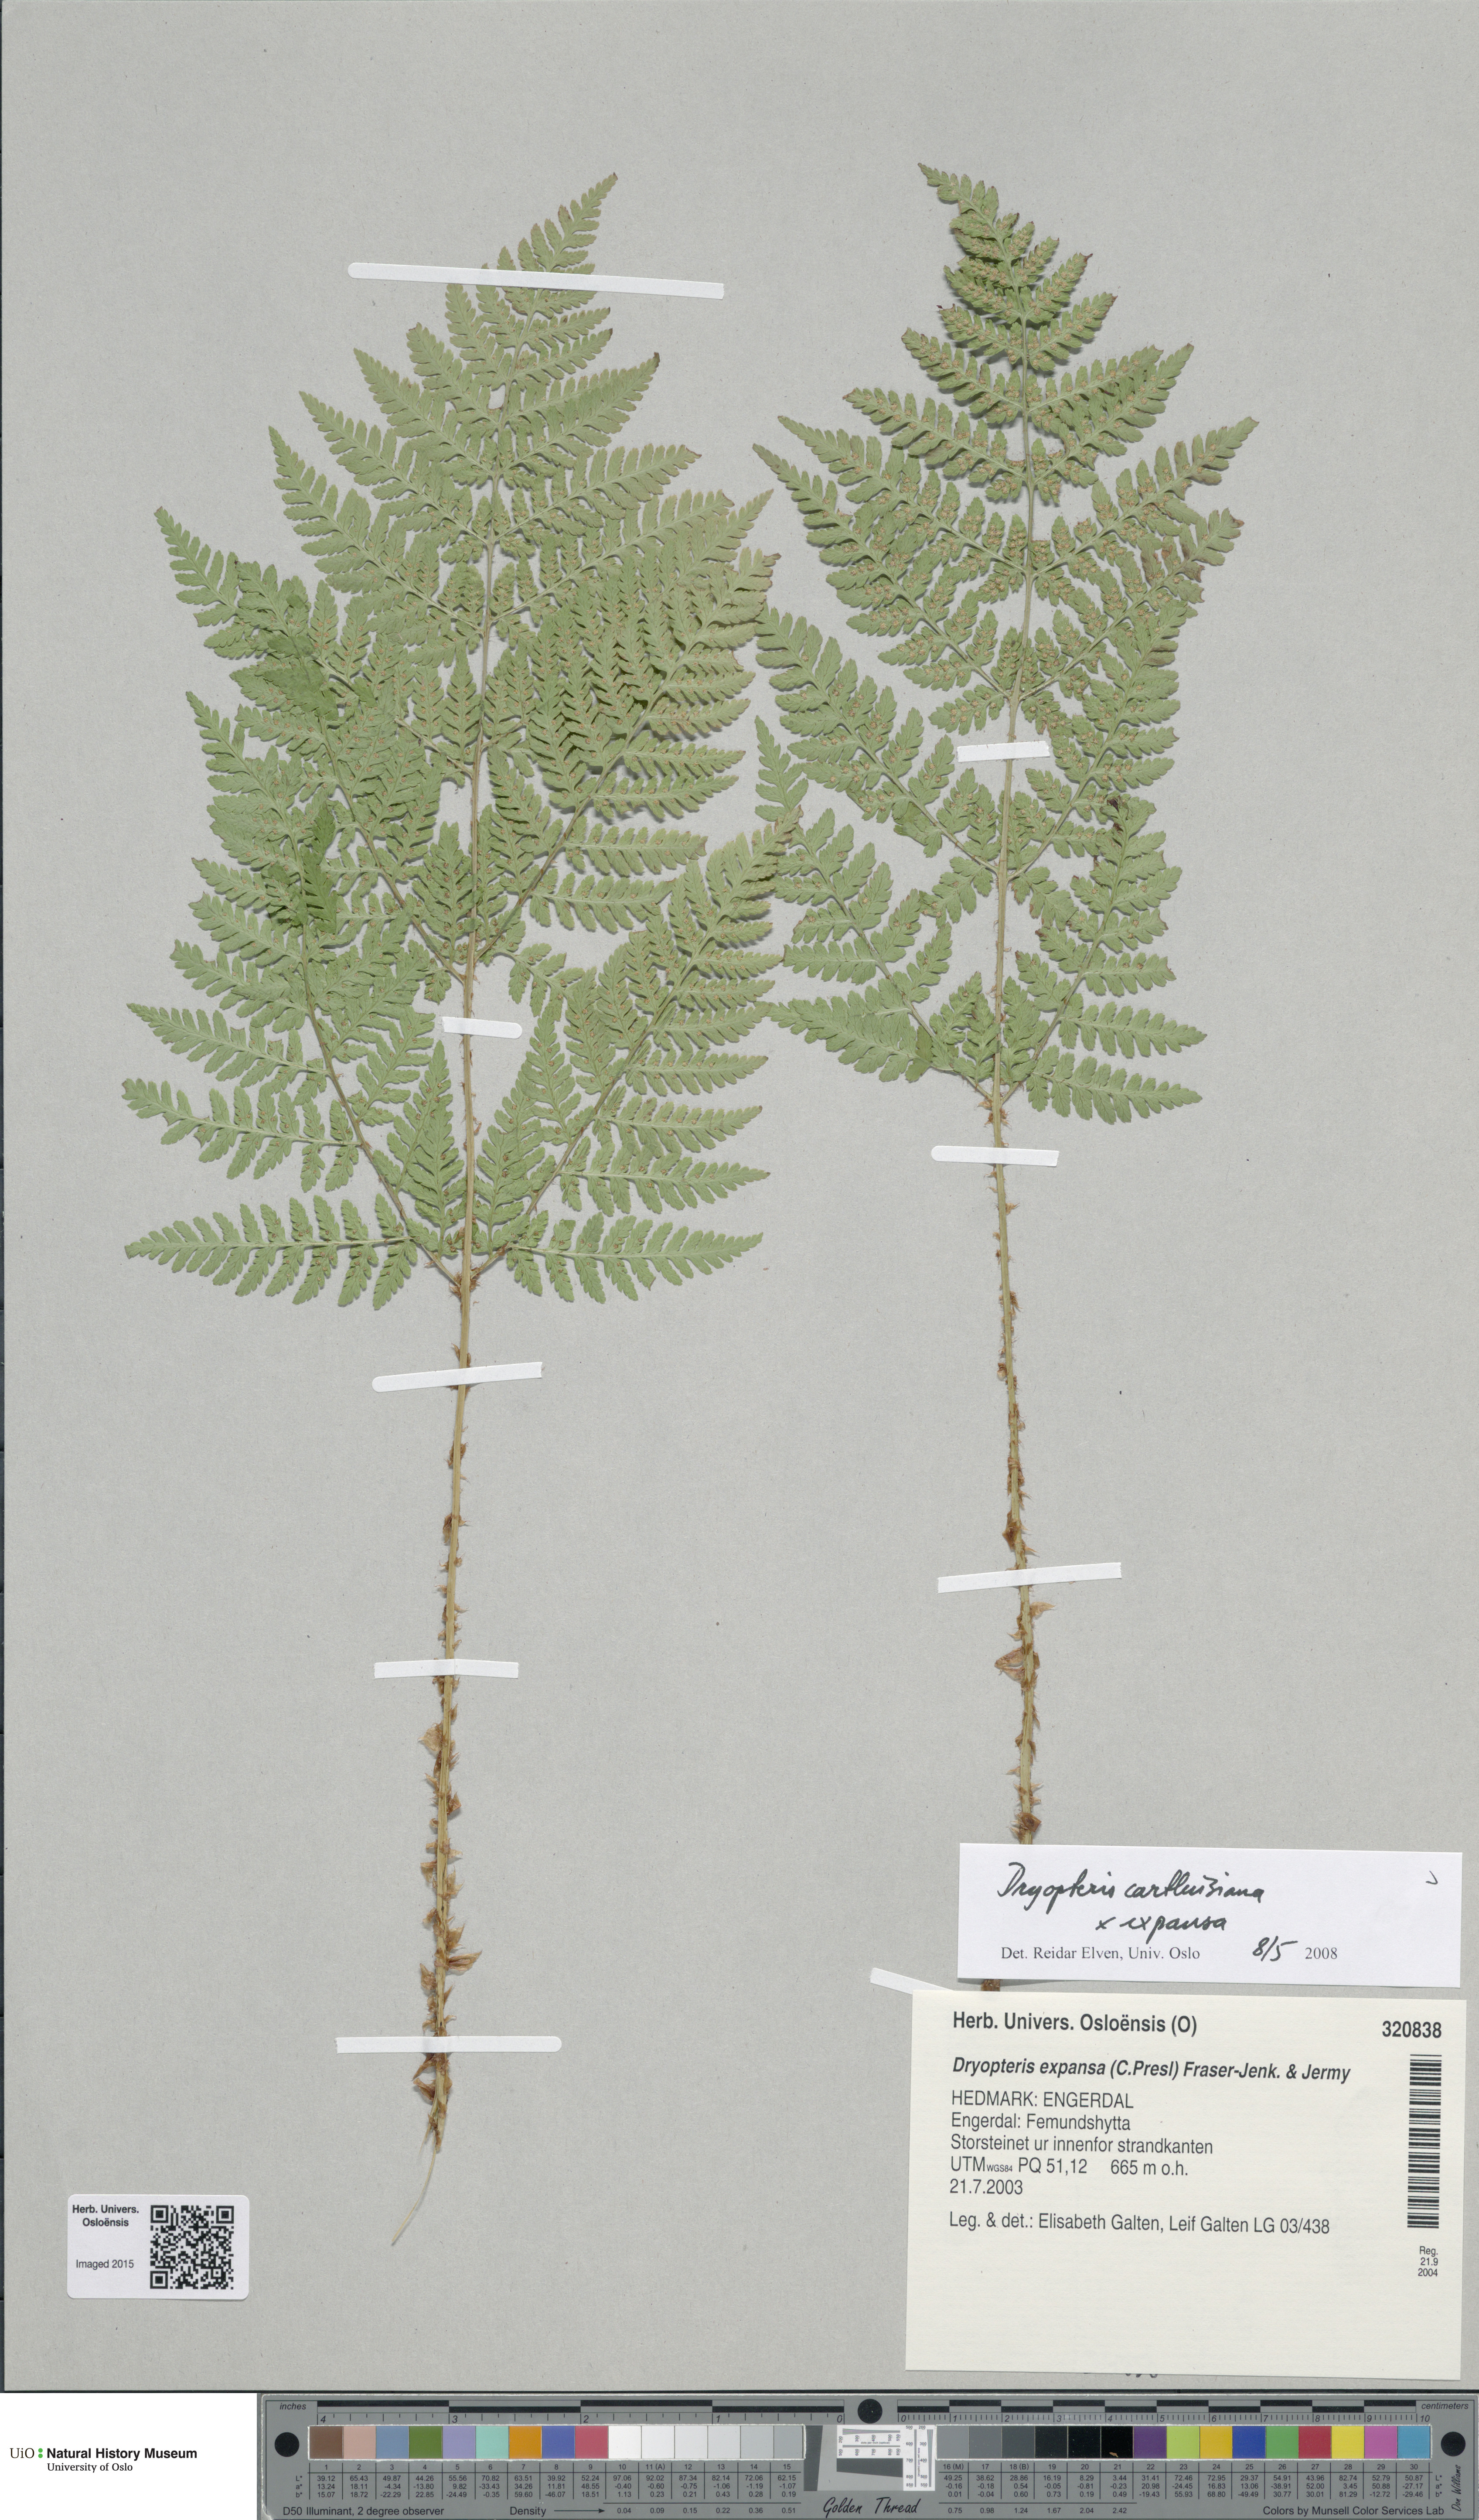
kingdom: Plantae
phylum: Tracheophyta
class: Polypodiopsida
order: Polypodiales
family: Dryopteridaceae
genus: Dryopteris
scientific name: Dryopteris
